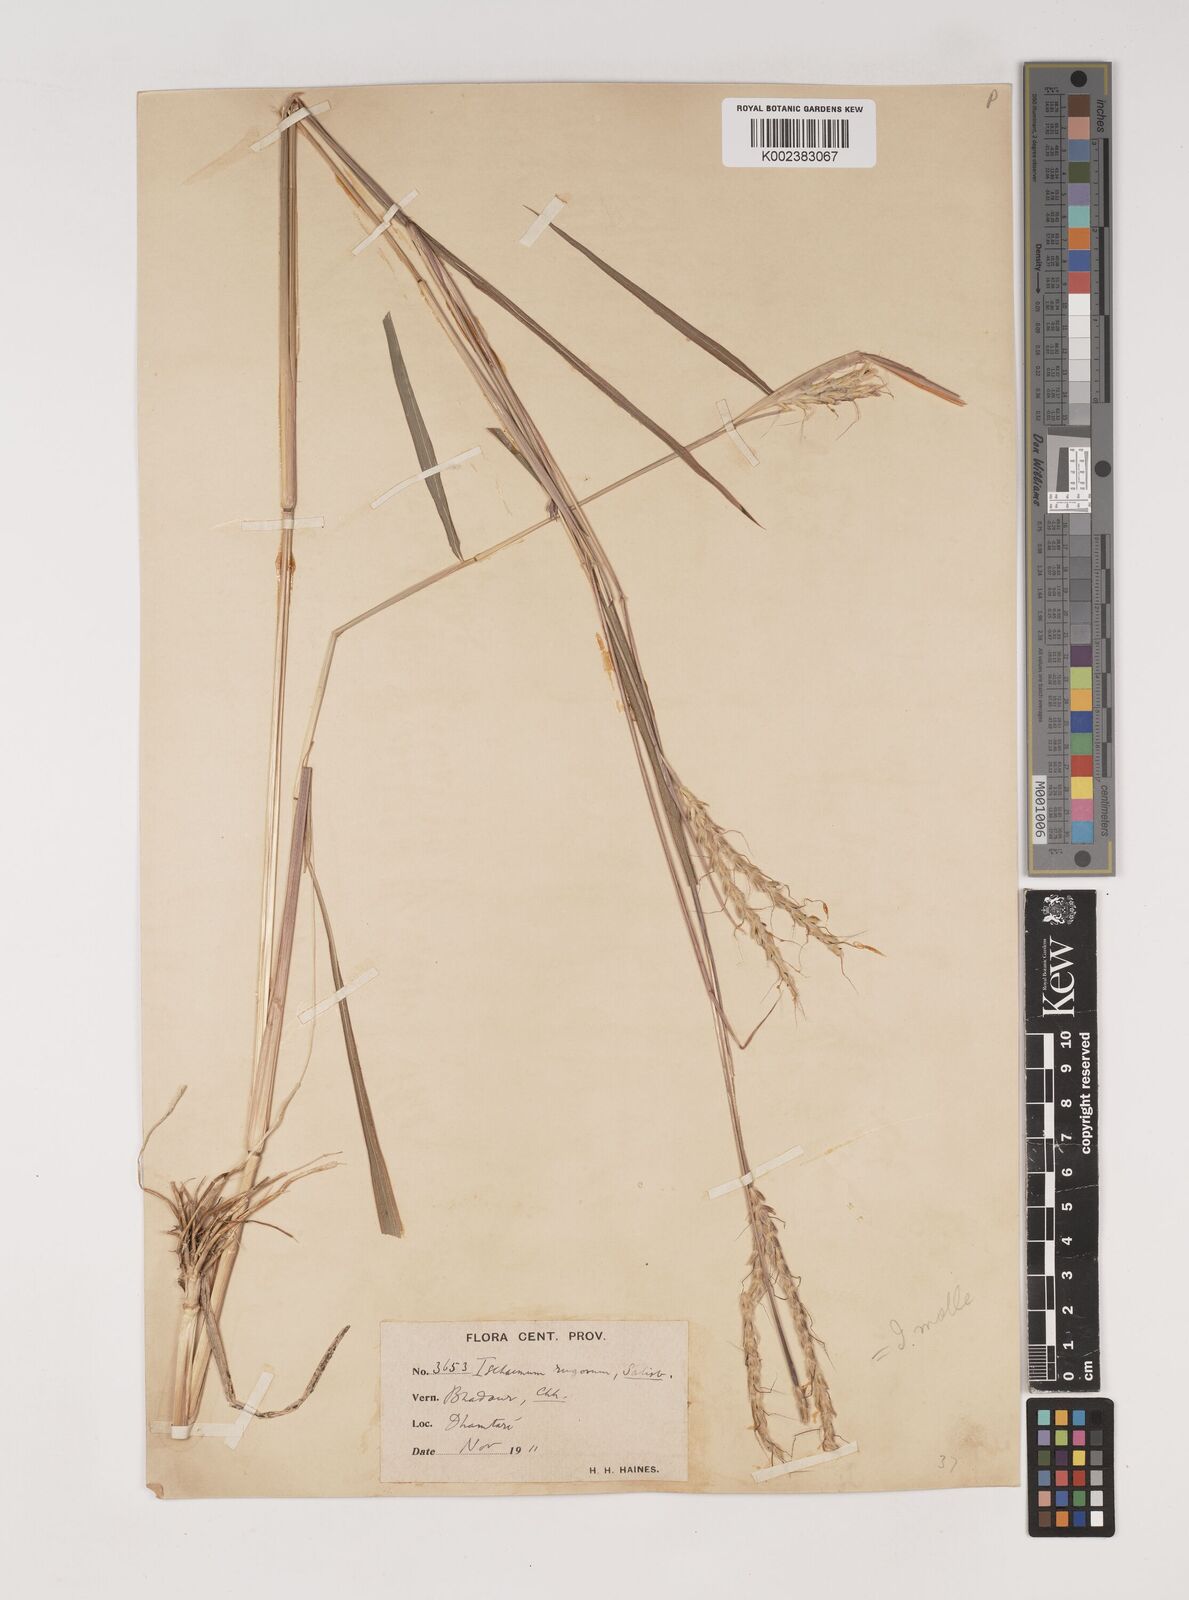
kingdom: Plantae
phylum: Tracheophyta
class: Liliopsida
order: Poales
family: Poaceae
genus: Ischaemum
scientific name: Ischaemum rugosum
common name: Saramatta grass
